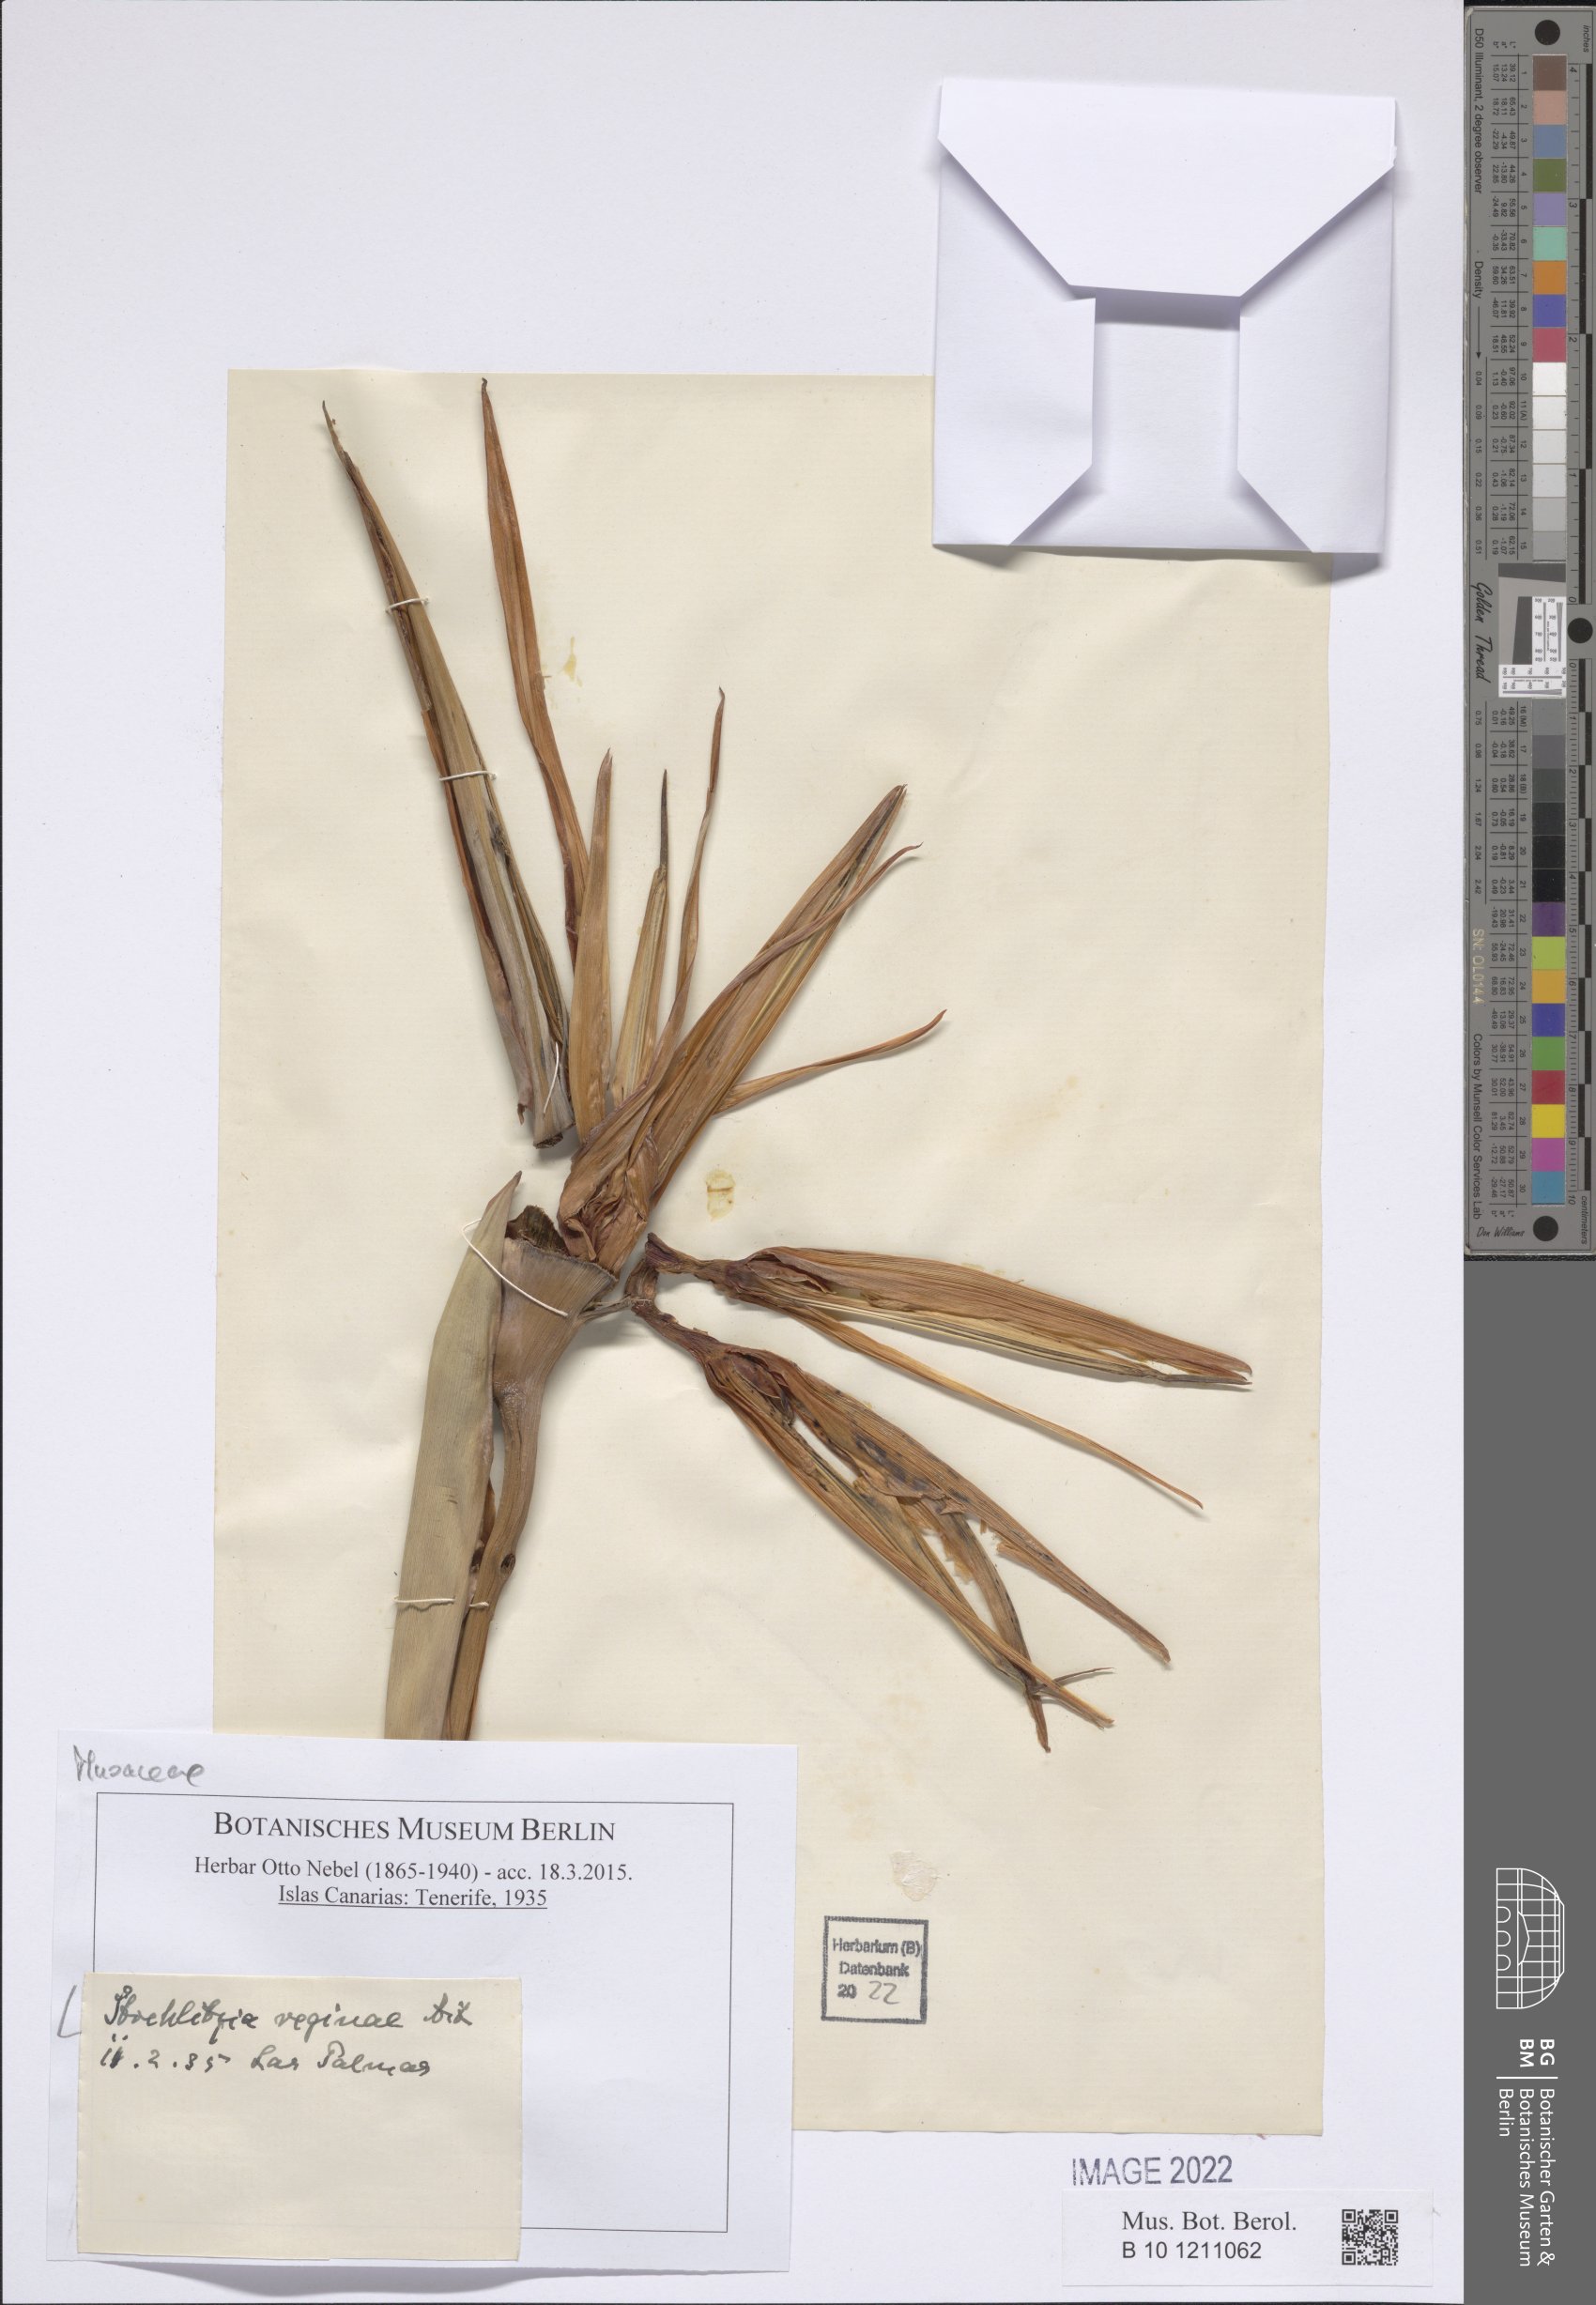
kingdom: Plantae
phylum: Tracheophyta
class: Liliopsida
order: Zingiberales
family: Strelitziaceae
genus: Strelitzia
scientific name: Strelitzia reginae
